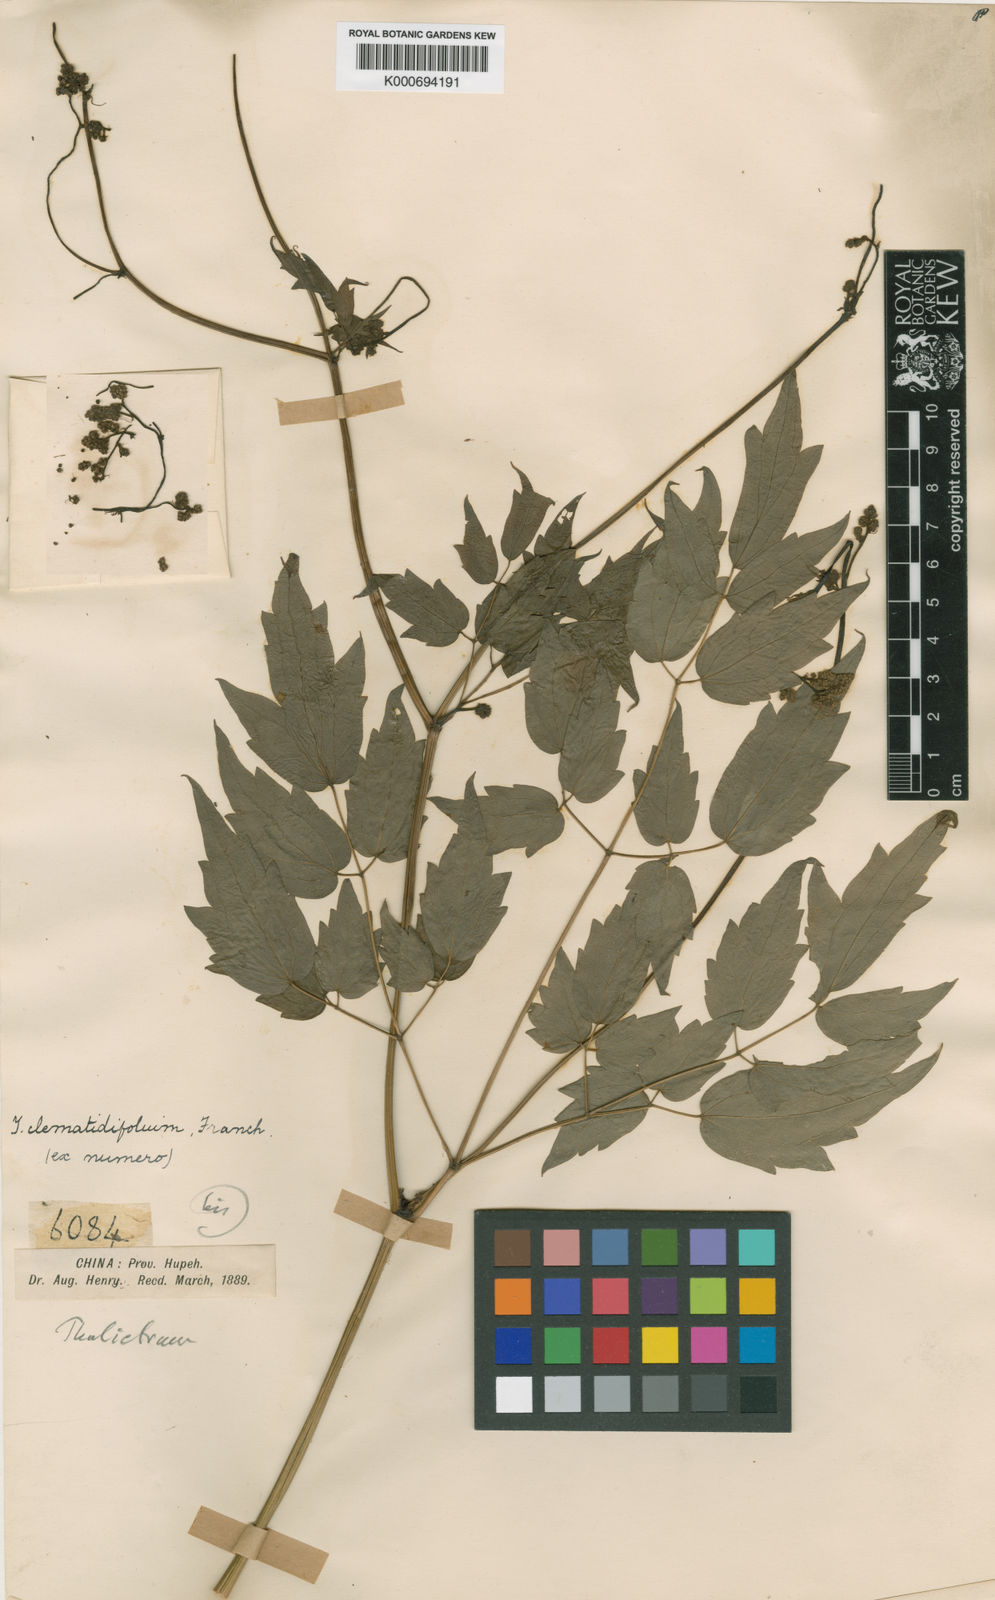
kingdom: Plantae
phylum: Tracheophyta
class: Magnoliopsida
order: Ranunculales
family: Ranunculaceae
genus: Thalictrum
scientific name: Thalictrum robustum
